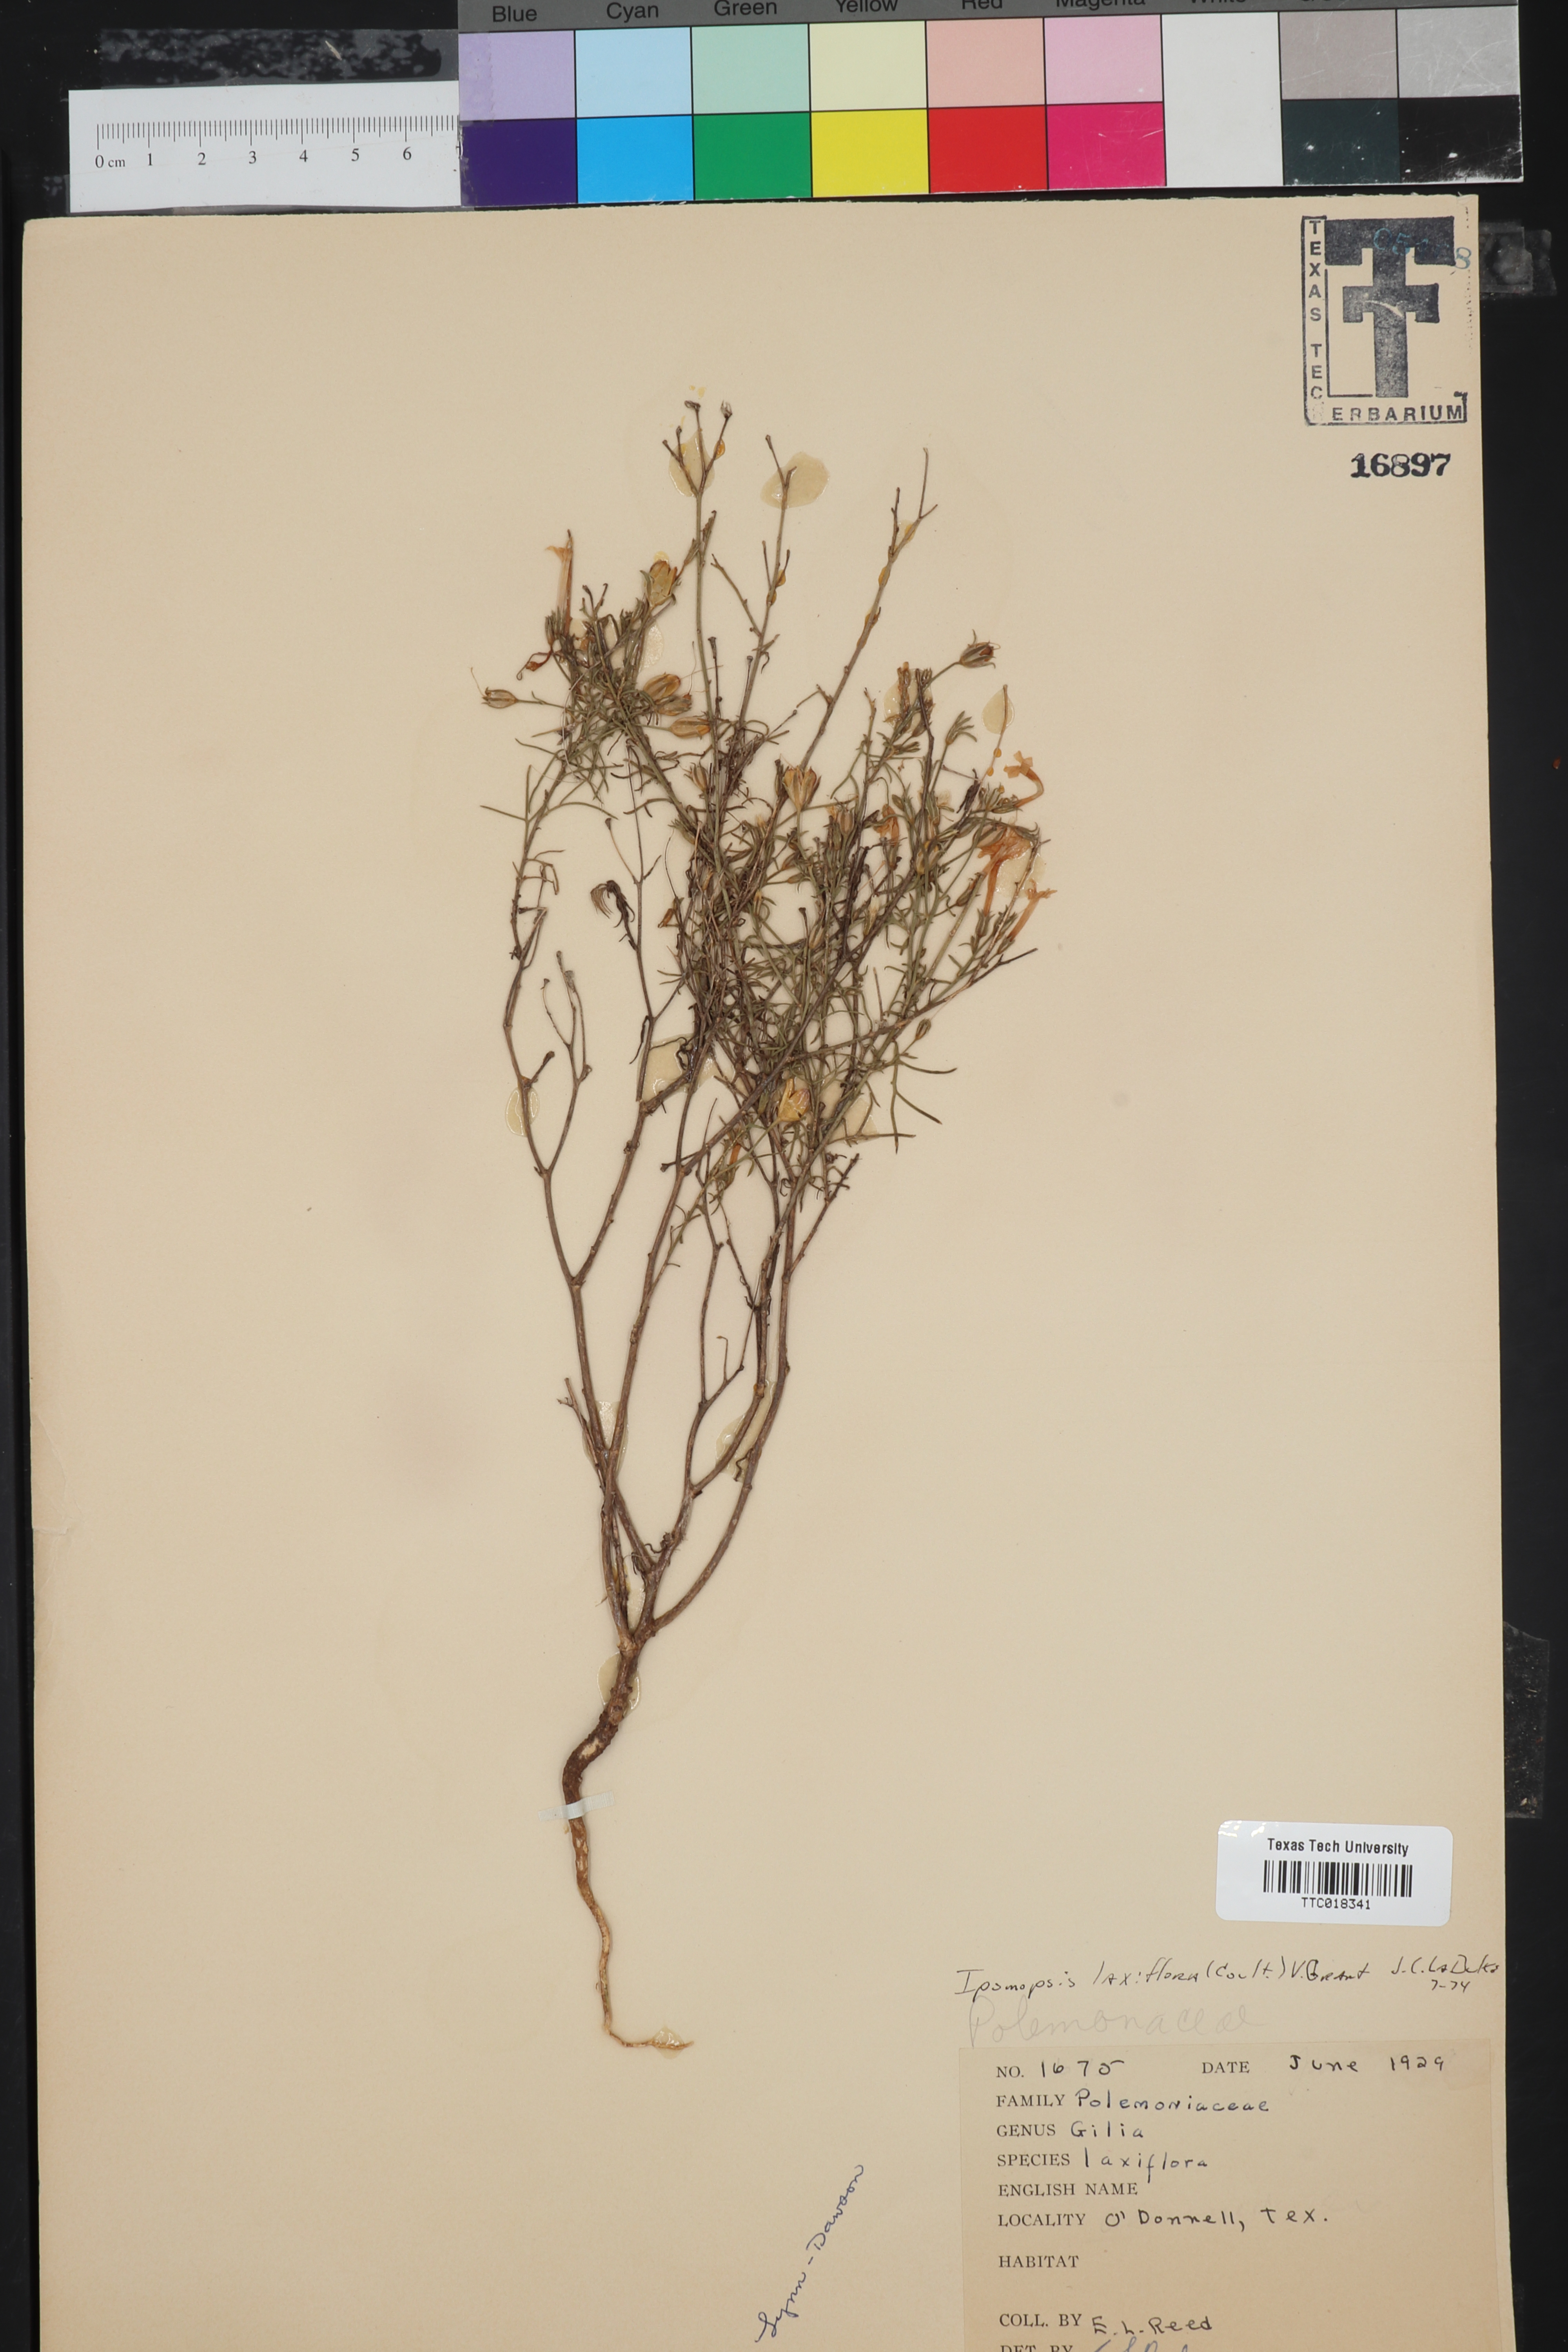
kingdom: Plantae
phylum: Tracheophyta
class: Magnoliopsida
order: Ericales
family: Polemoniaceae
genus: Ipomopsis
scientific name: Ipomopsis laxiflora
